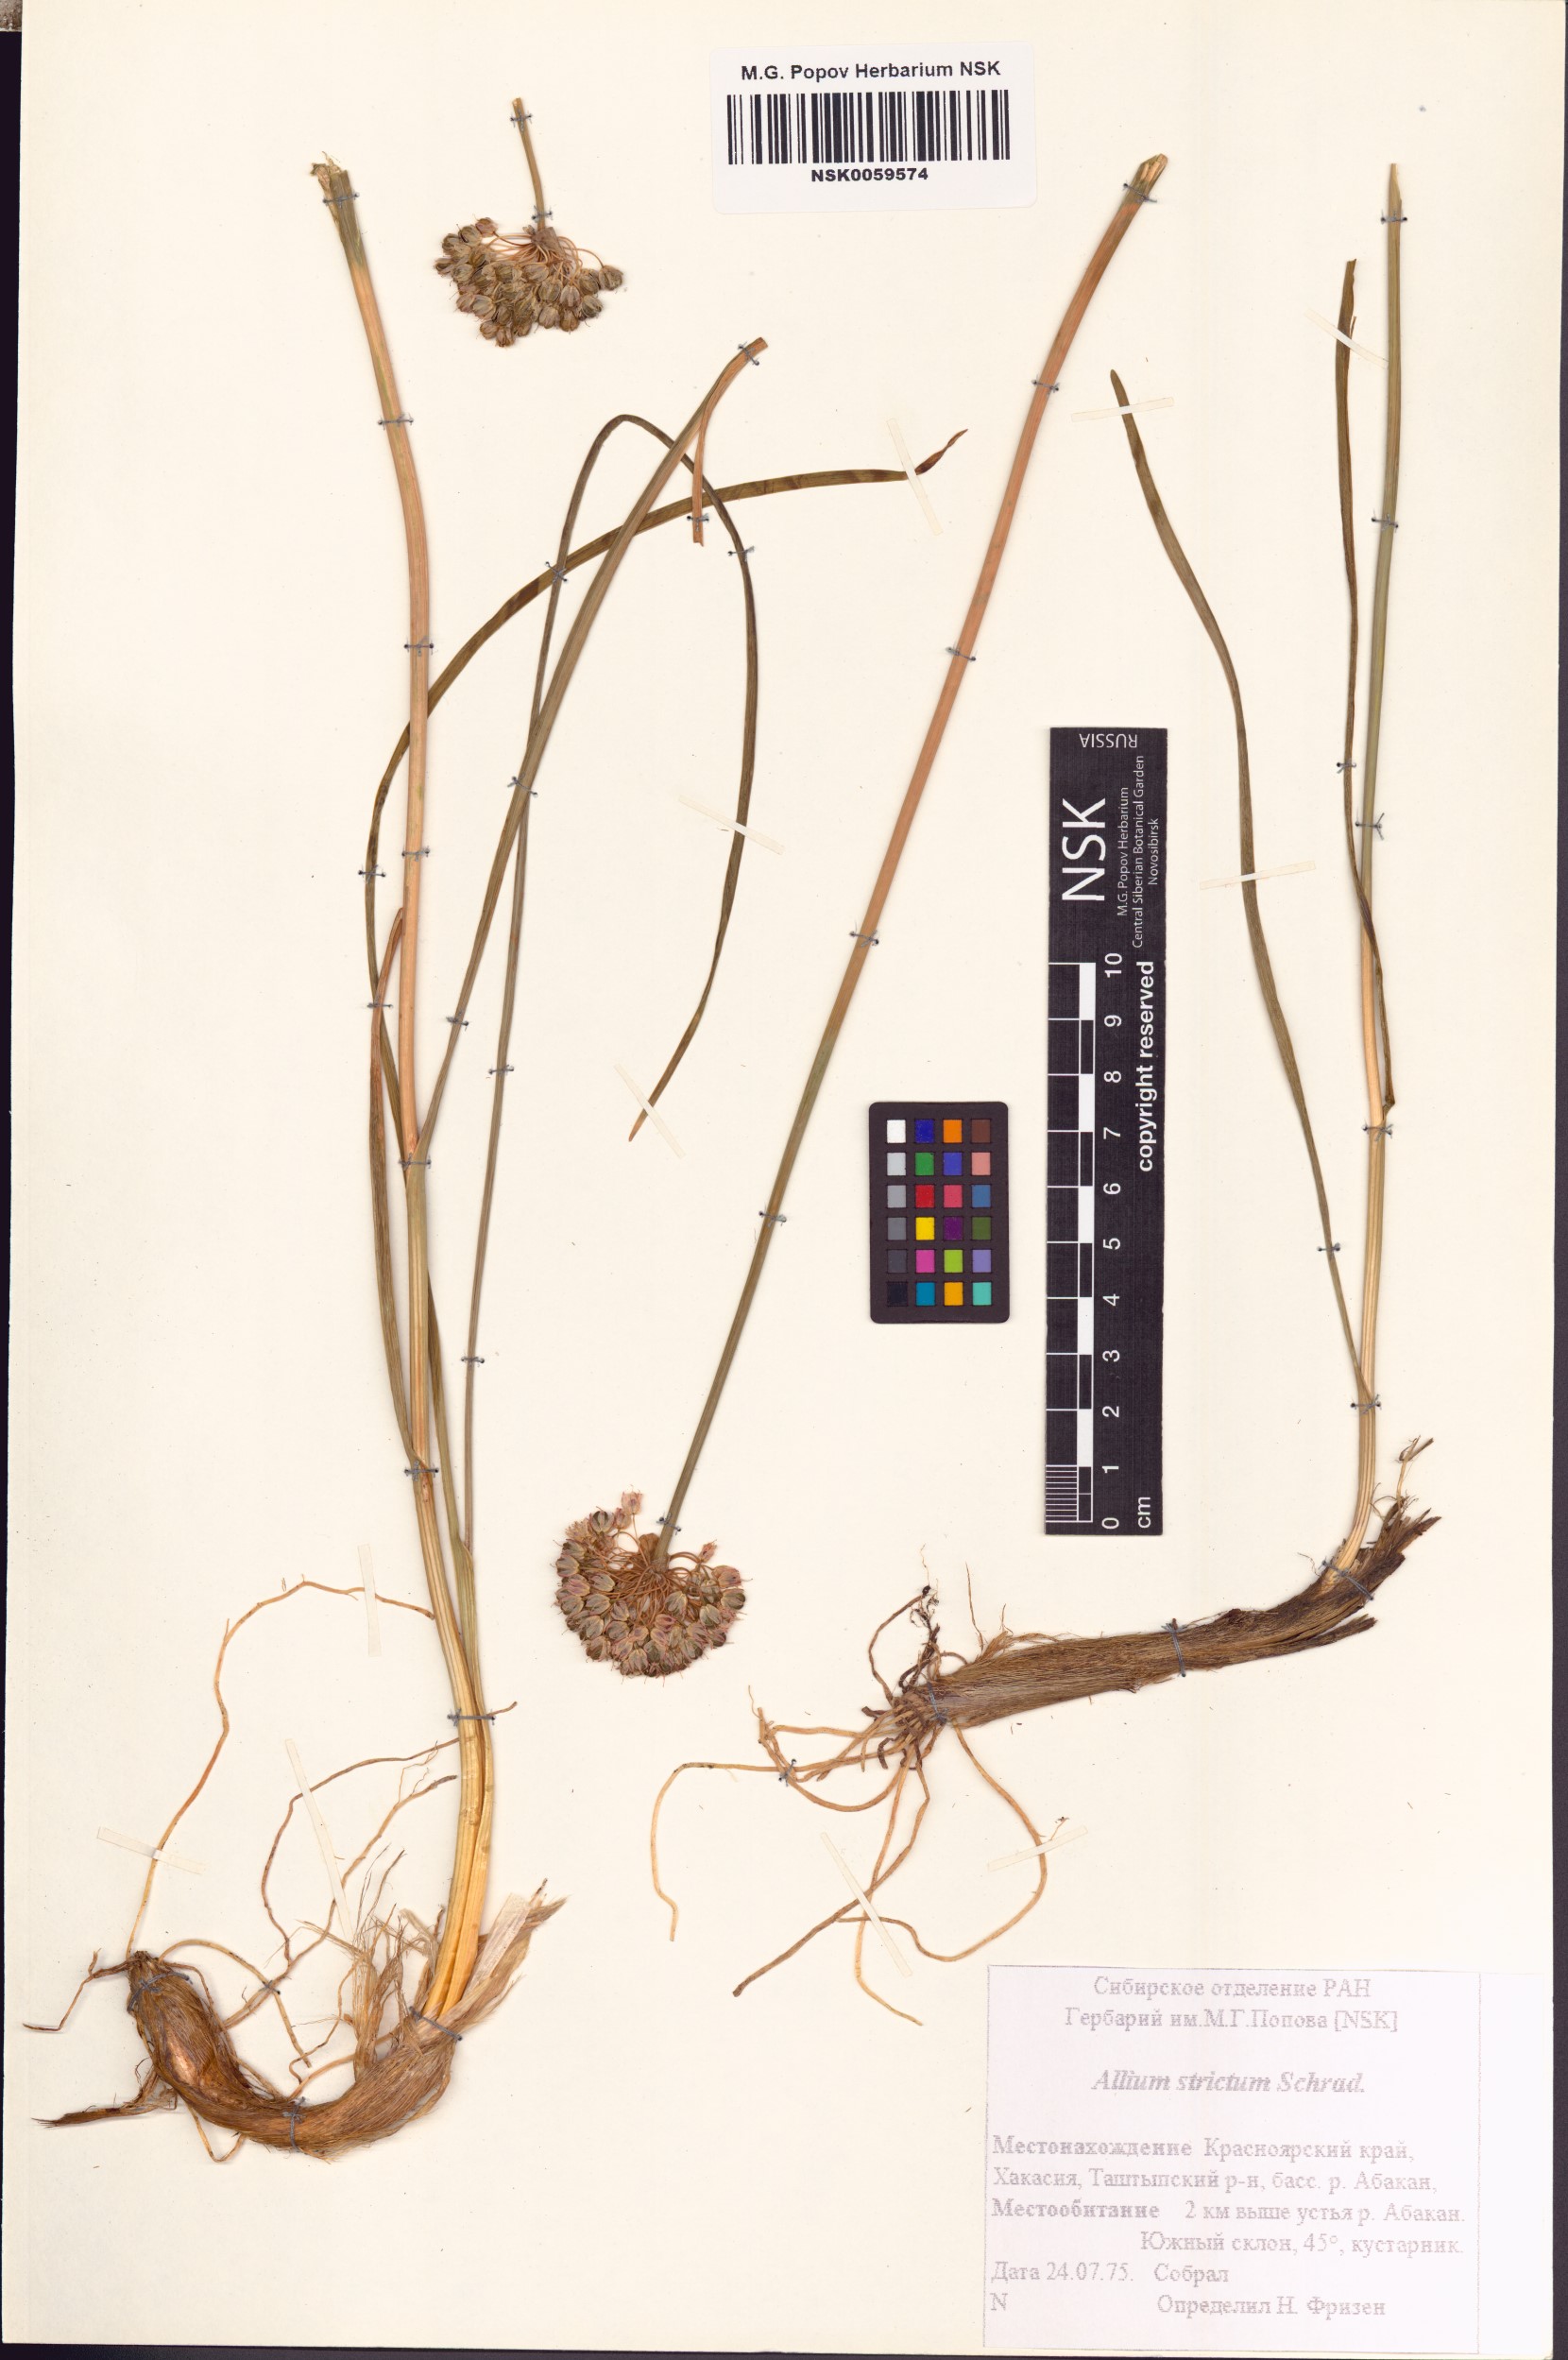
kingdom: Plantae
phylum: Tracheophyta
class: Liliopsida
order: Asparagales
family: Amaryllidaceae
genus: Allium
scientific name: Allium strictum
